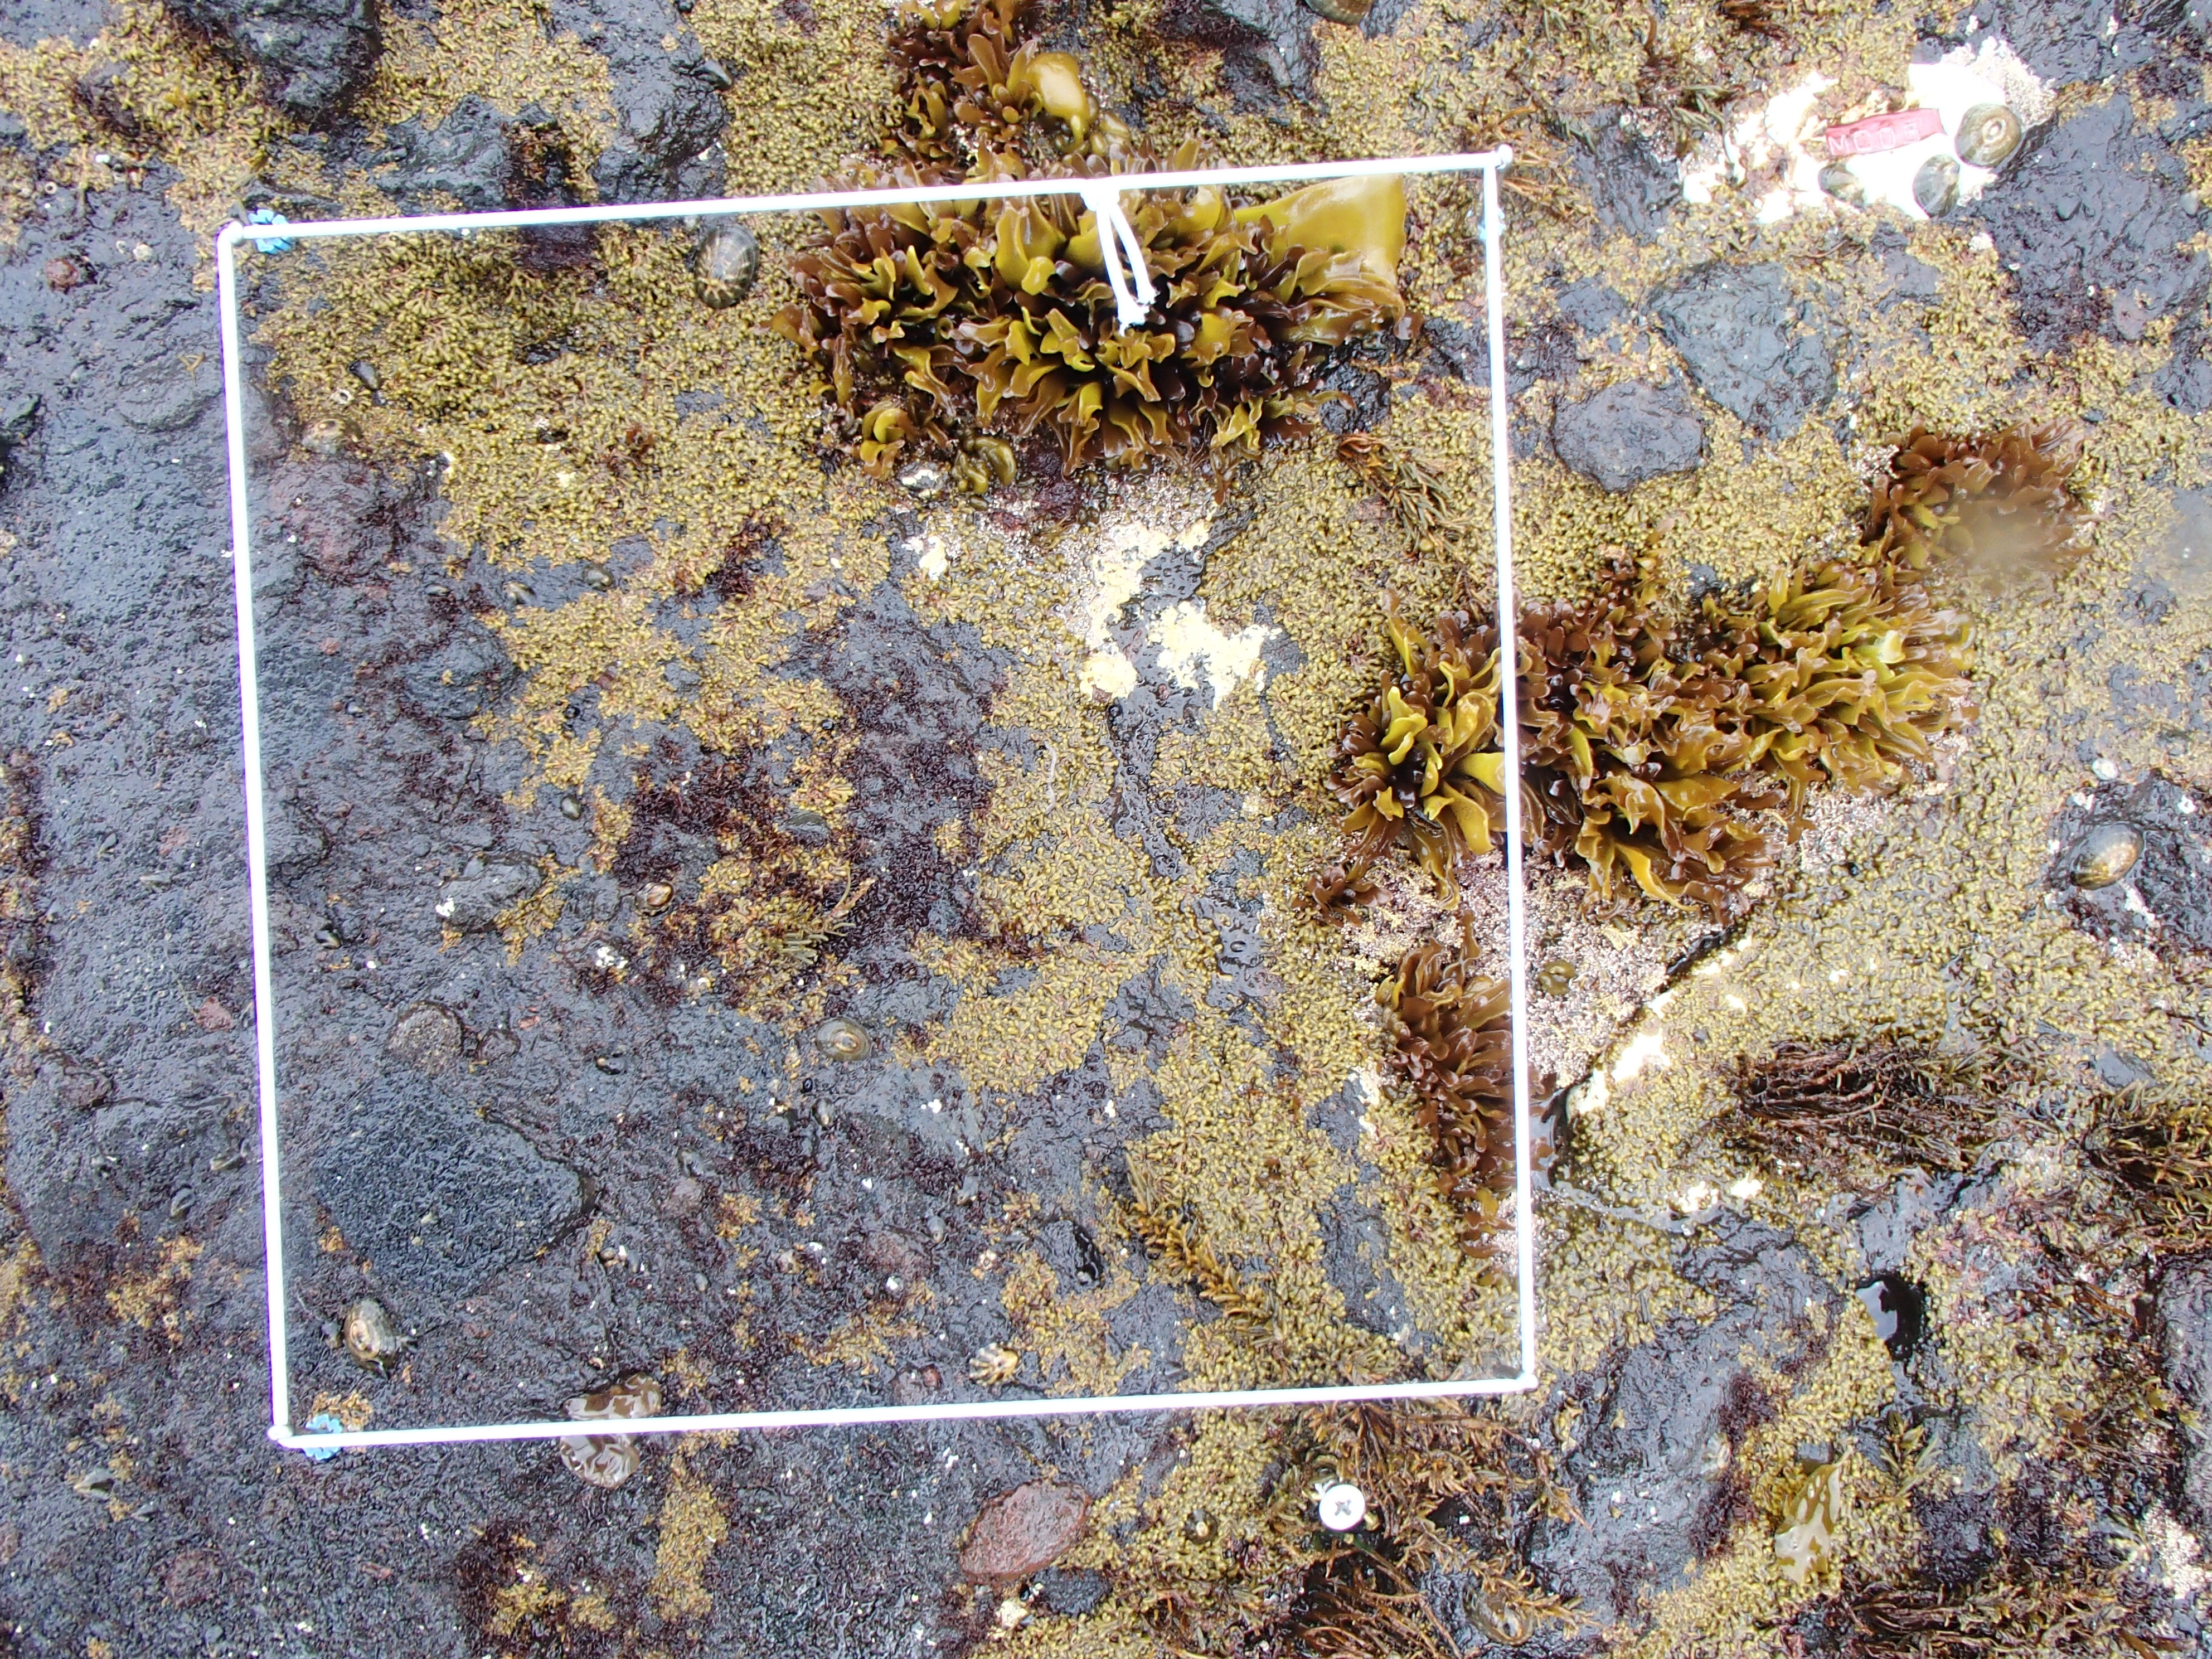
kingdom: Plantae
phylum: Rhodophyta
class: Florideophyceae
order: Corallinales
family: Corallinaceae
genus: Corallina
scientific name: Corallina pilulifera
